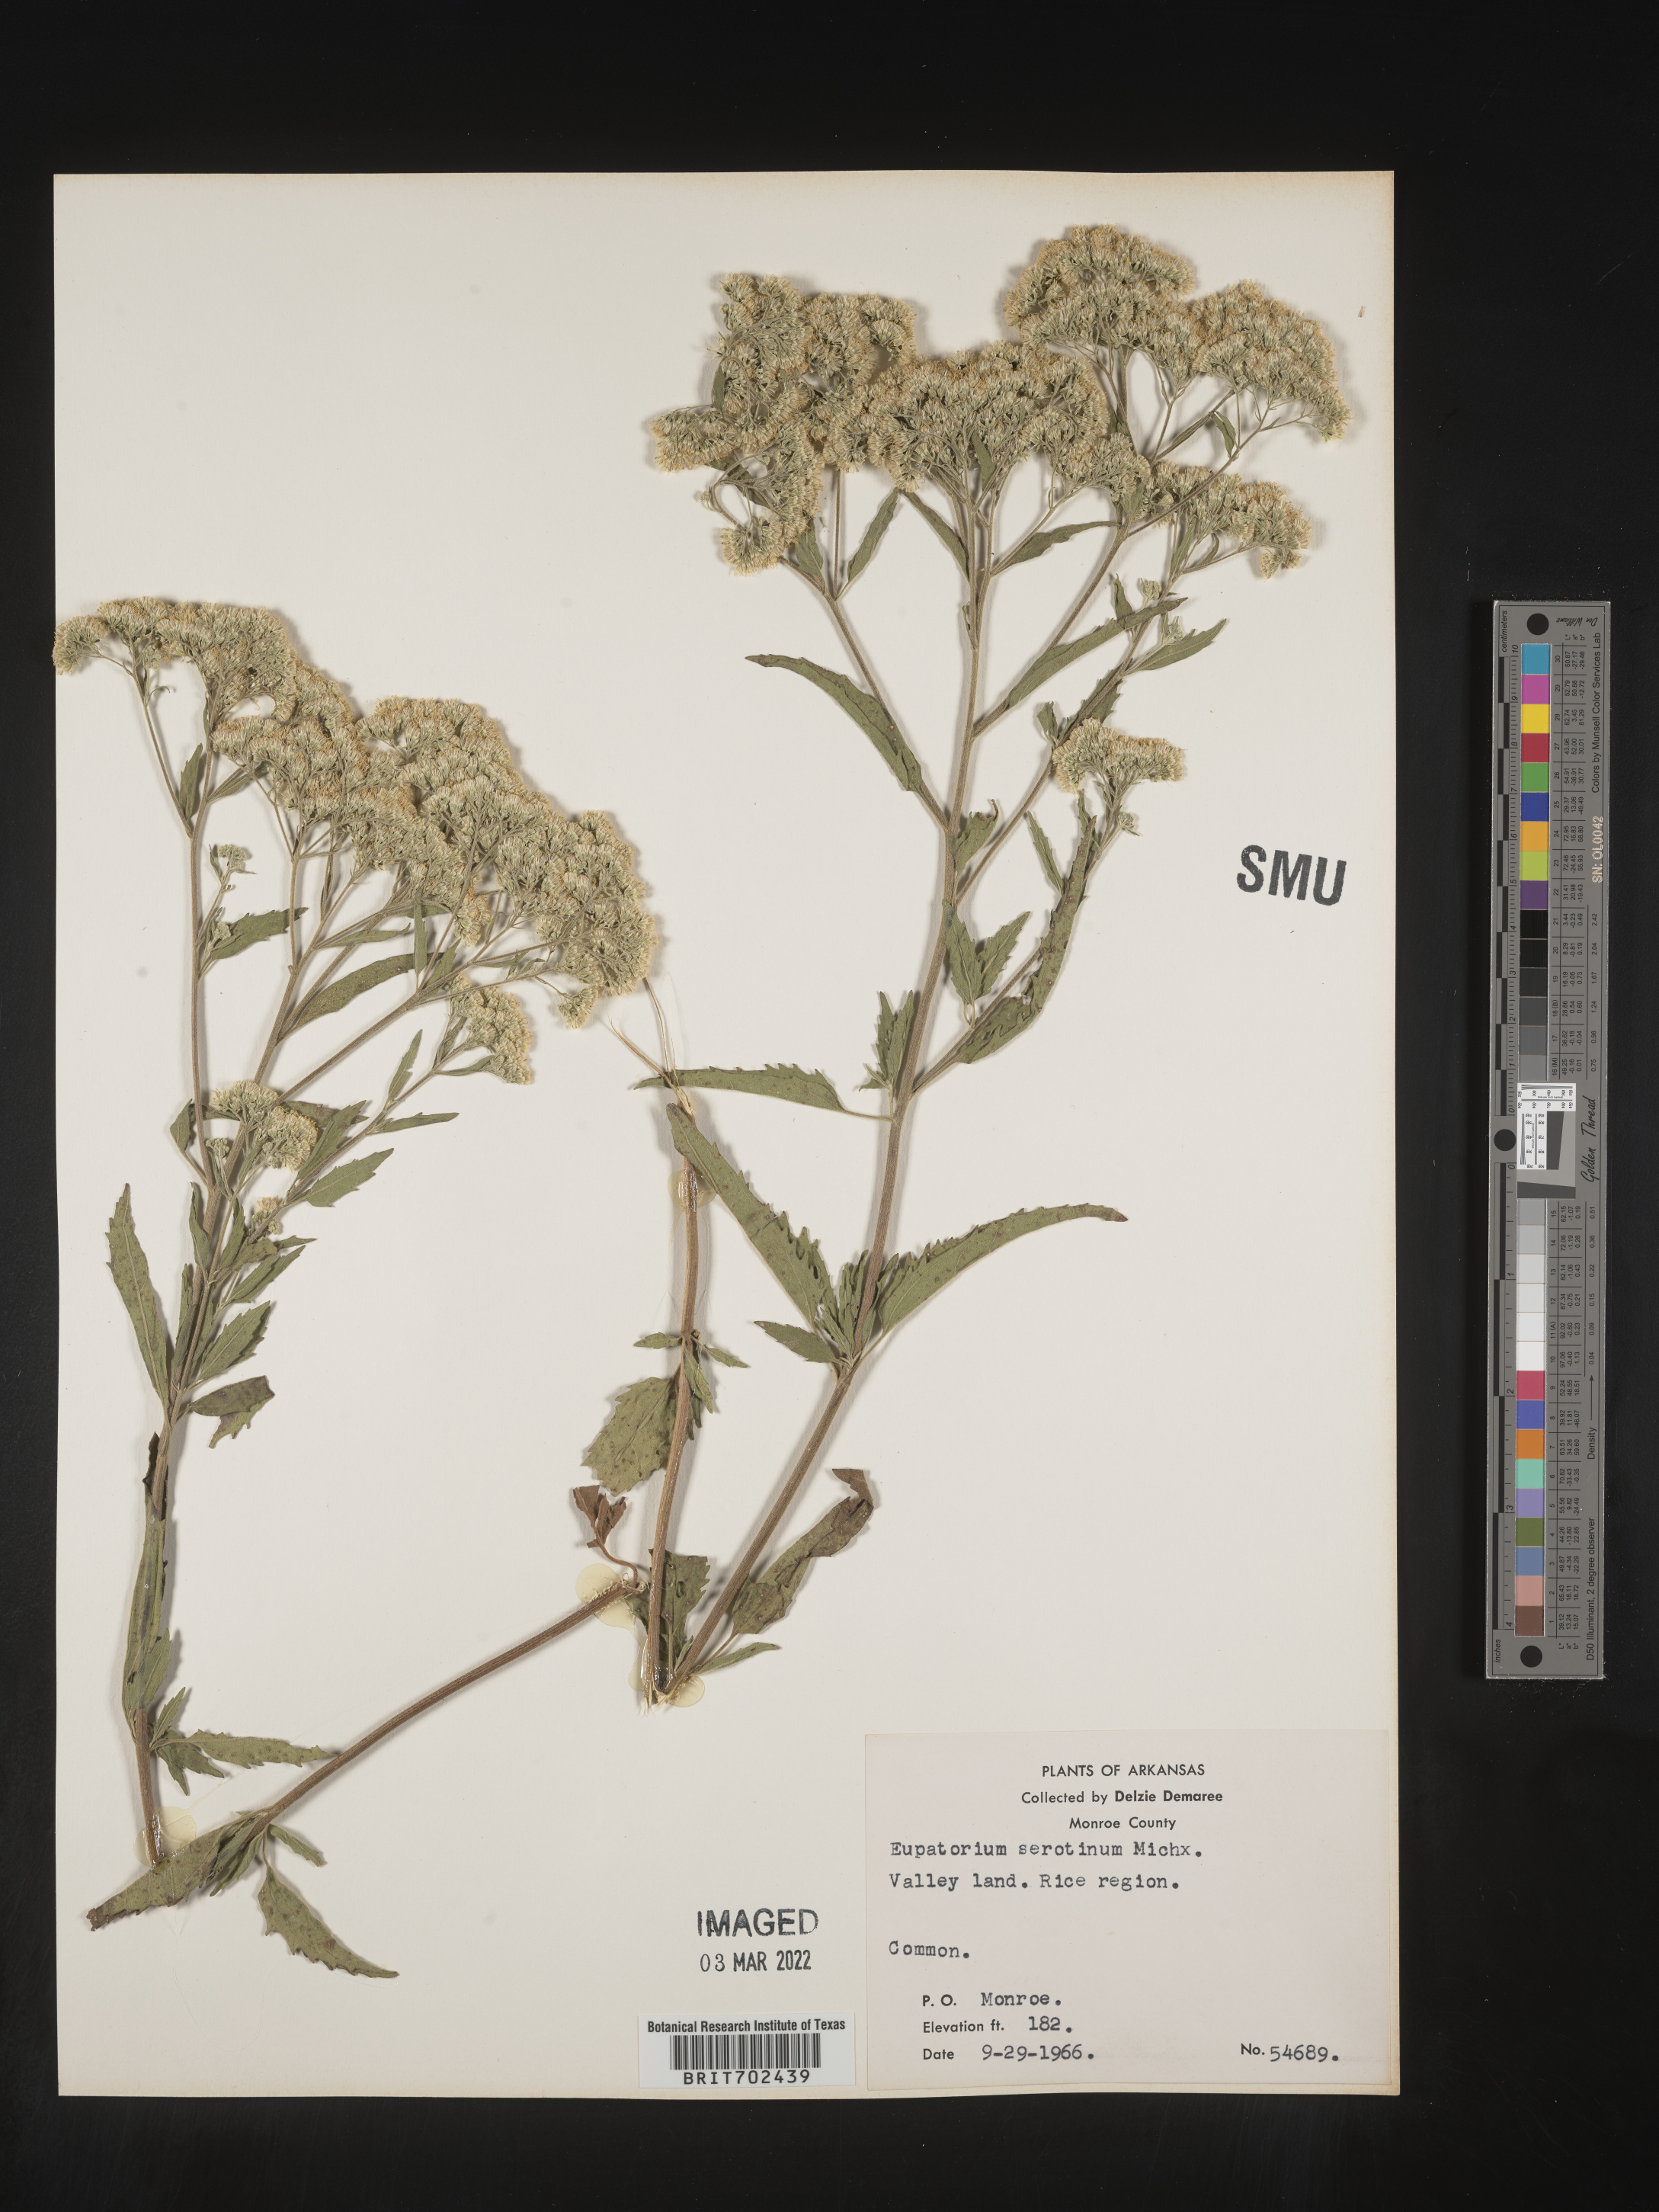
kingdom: Plantae
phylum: Tracheophyta
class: Magnoliopsida
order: Asterales
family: Asteraceae
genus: Eupatorium
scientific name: Eupatorium serotinum
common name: Late boneset
